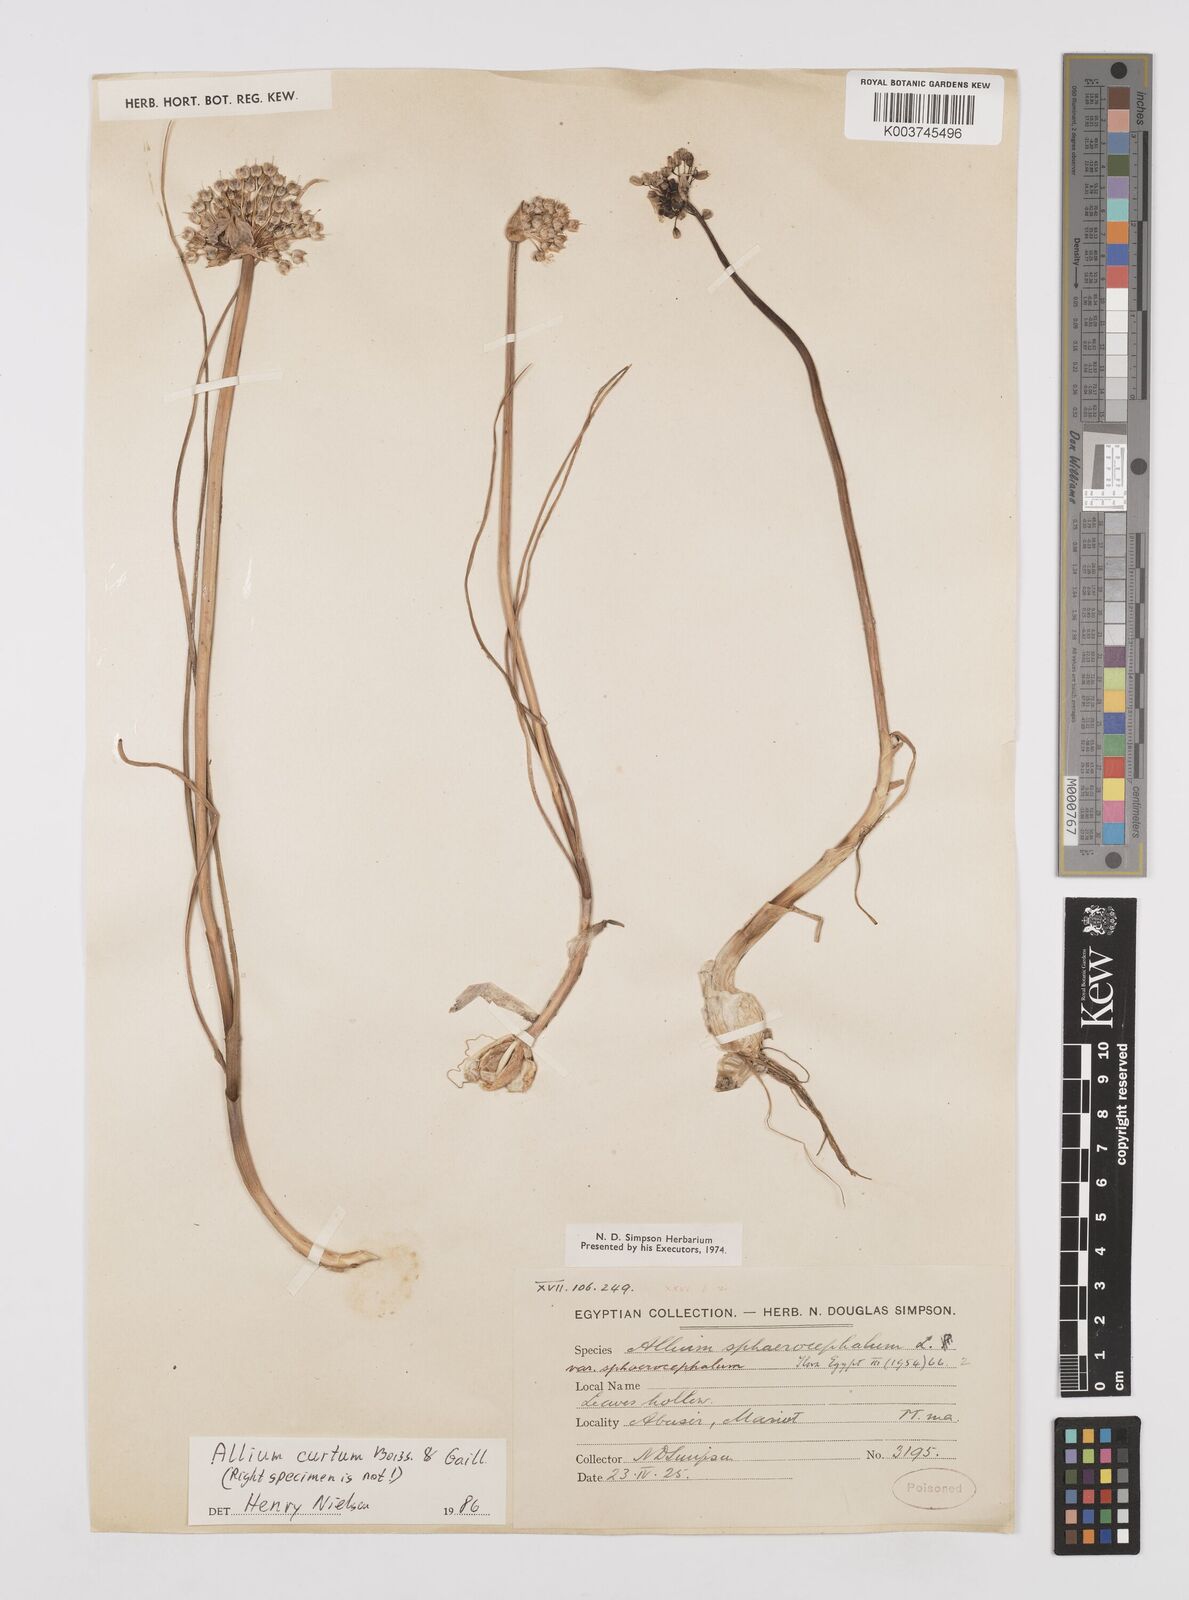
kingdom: Plantae
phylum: Tracheophyta
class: Liliopsida
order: Asparagales
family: Amaryllidaceae
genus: Allium
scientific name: Allium
